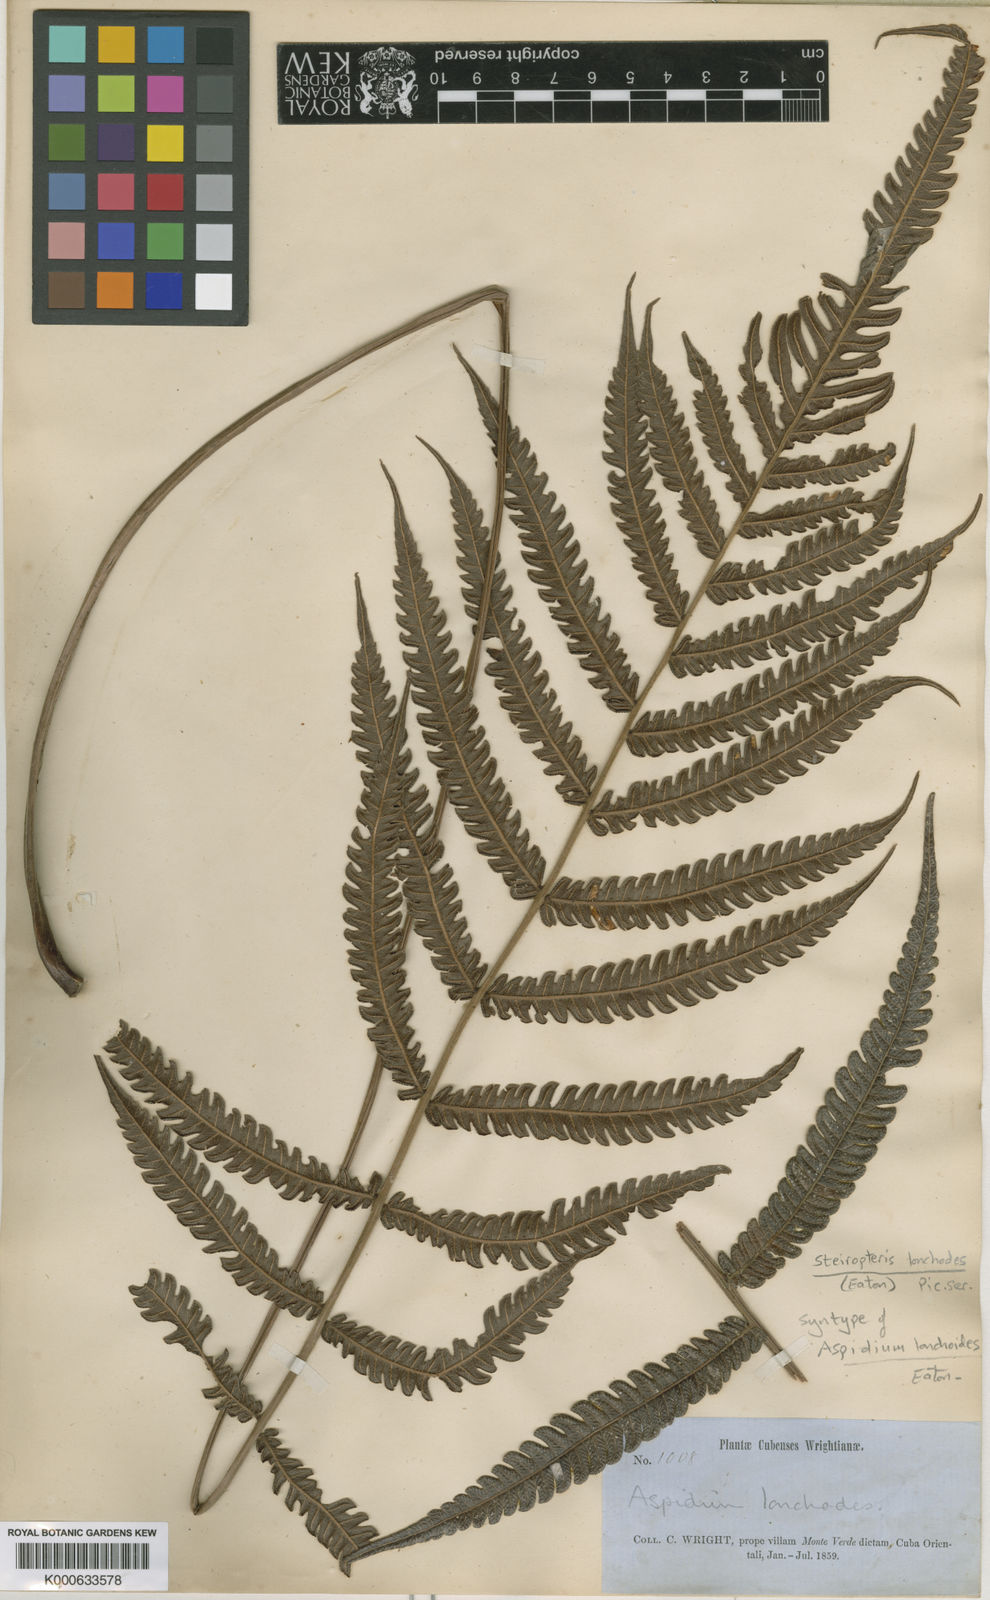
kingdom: Plantae
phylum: Tracheophyta
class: Polypodiopsida
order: Polypodiales
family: Thelypteridaceae
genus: Steiropteris
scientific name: Steiropteris lonchodes
